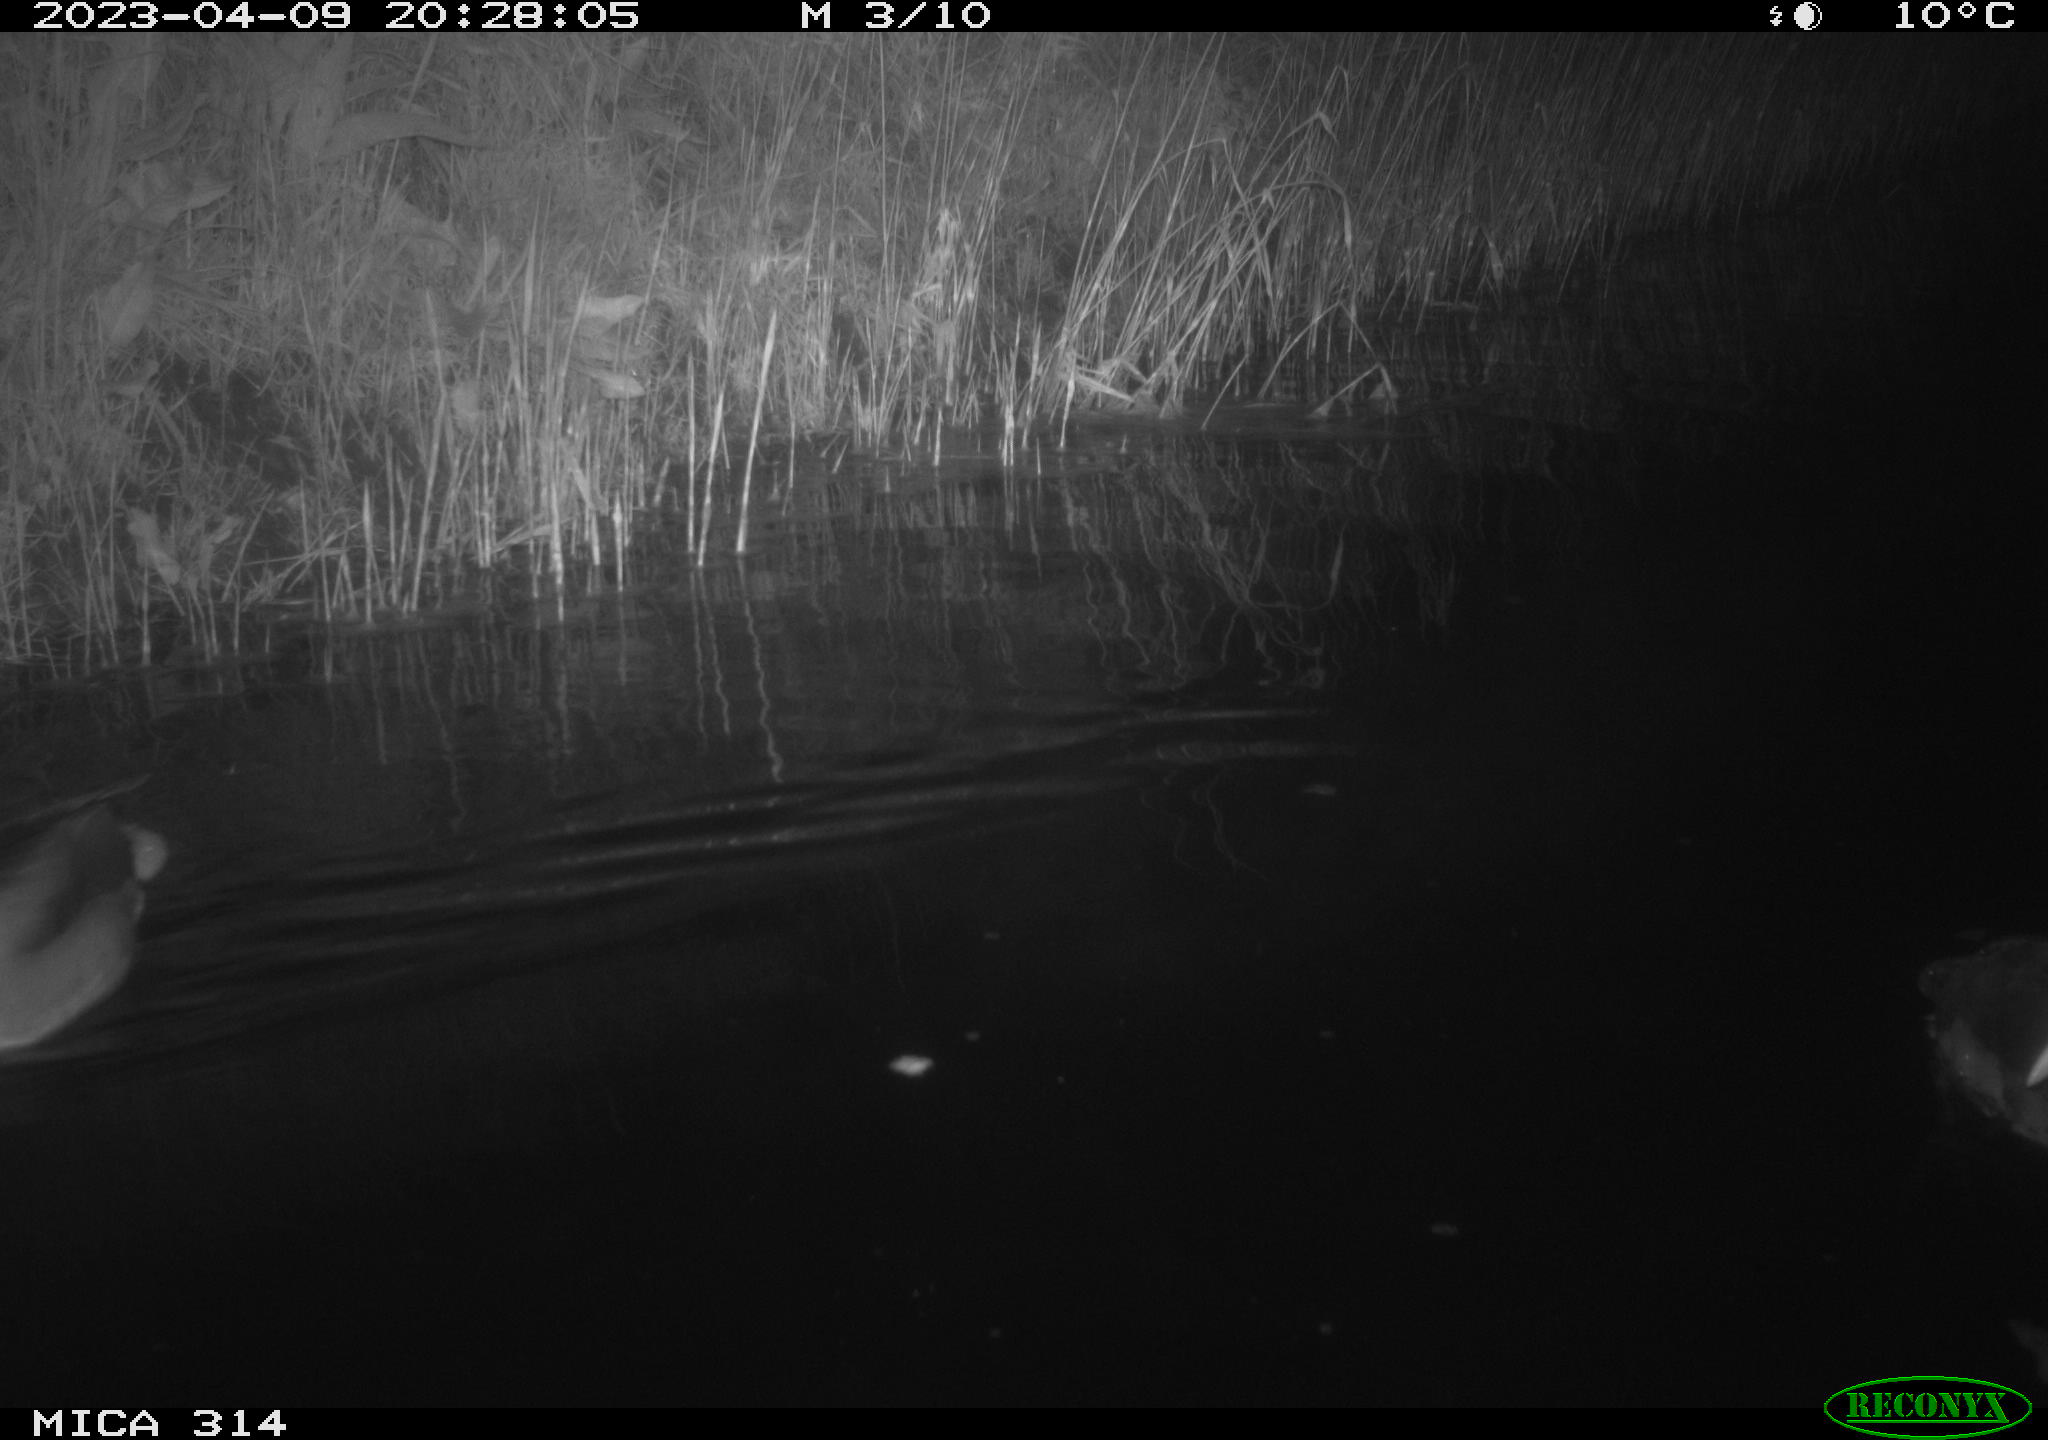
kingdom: Animalia
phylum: Chordata
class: Aves
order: Gruiformes
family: Rallidae
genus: Fulica
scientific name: Fulica atra
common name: Eurasian coot
